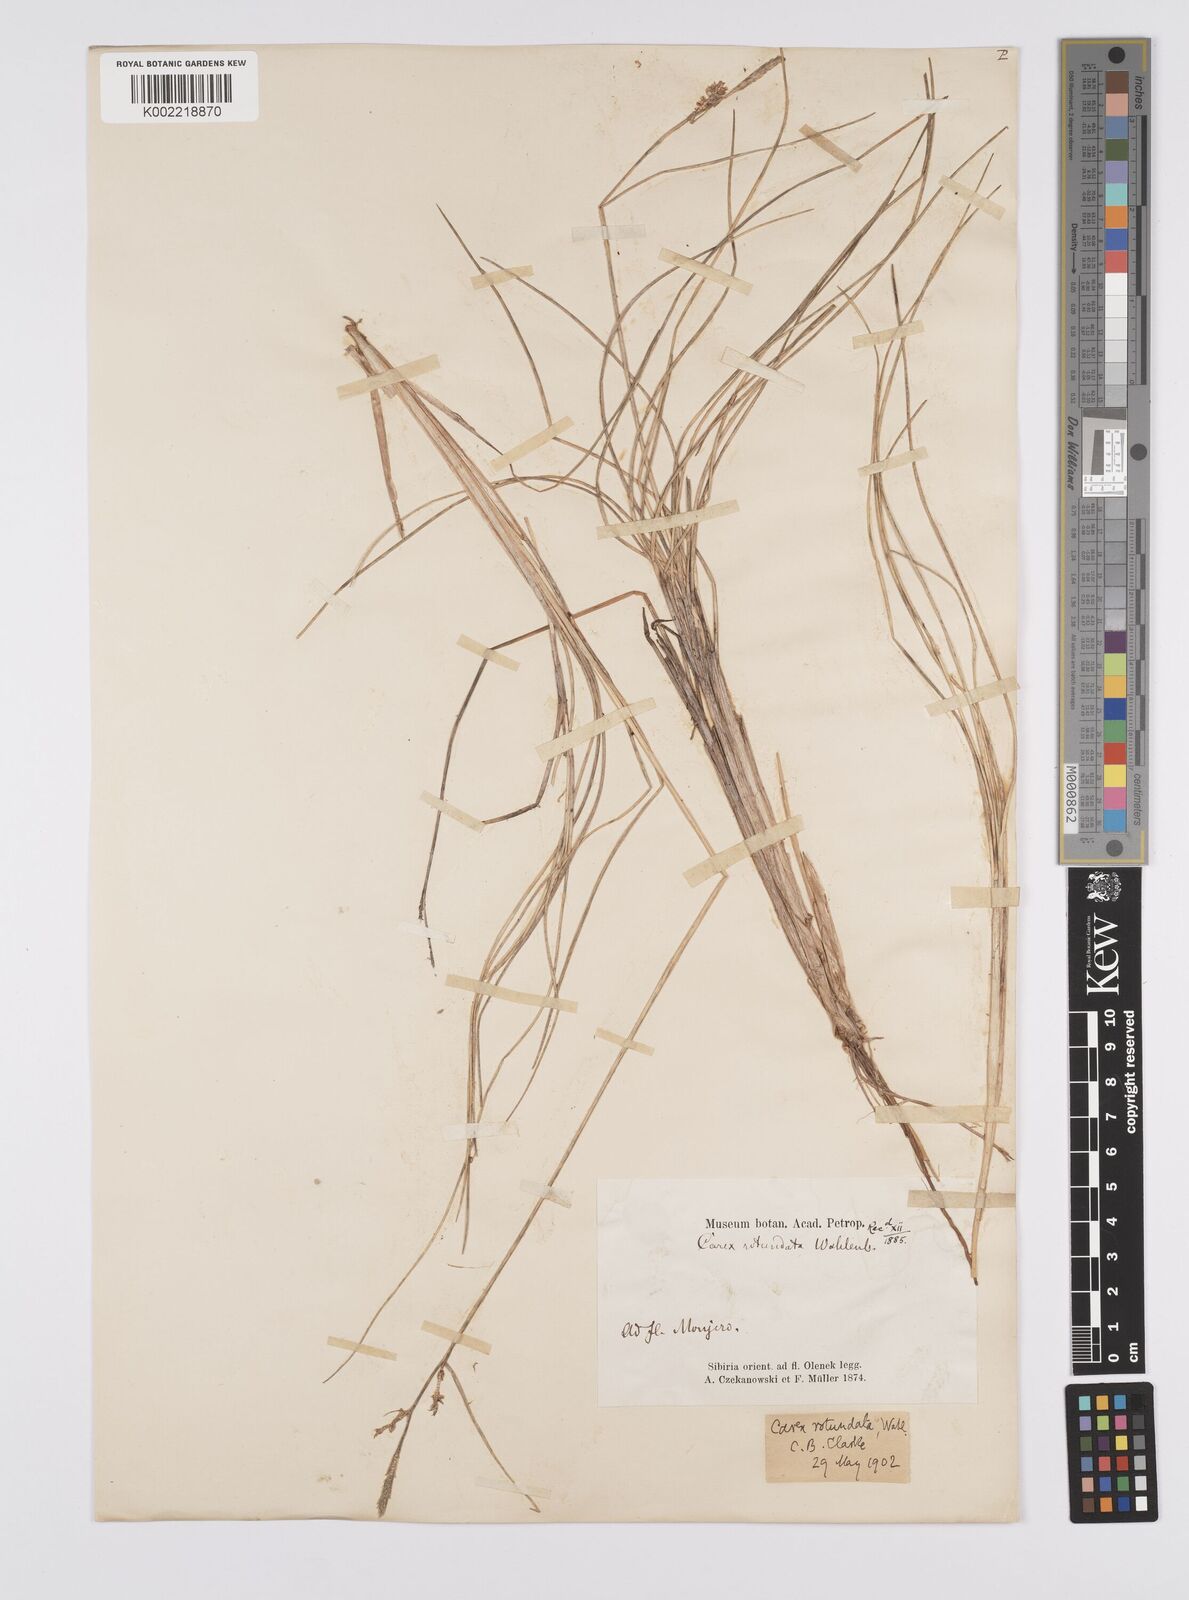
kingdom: Plantae
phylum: Tracheophyta
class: Liliopsida
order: Poales
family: Cyperaceae
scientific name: Cyperaceae
